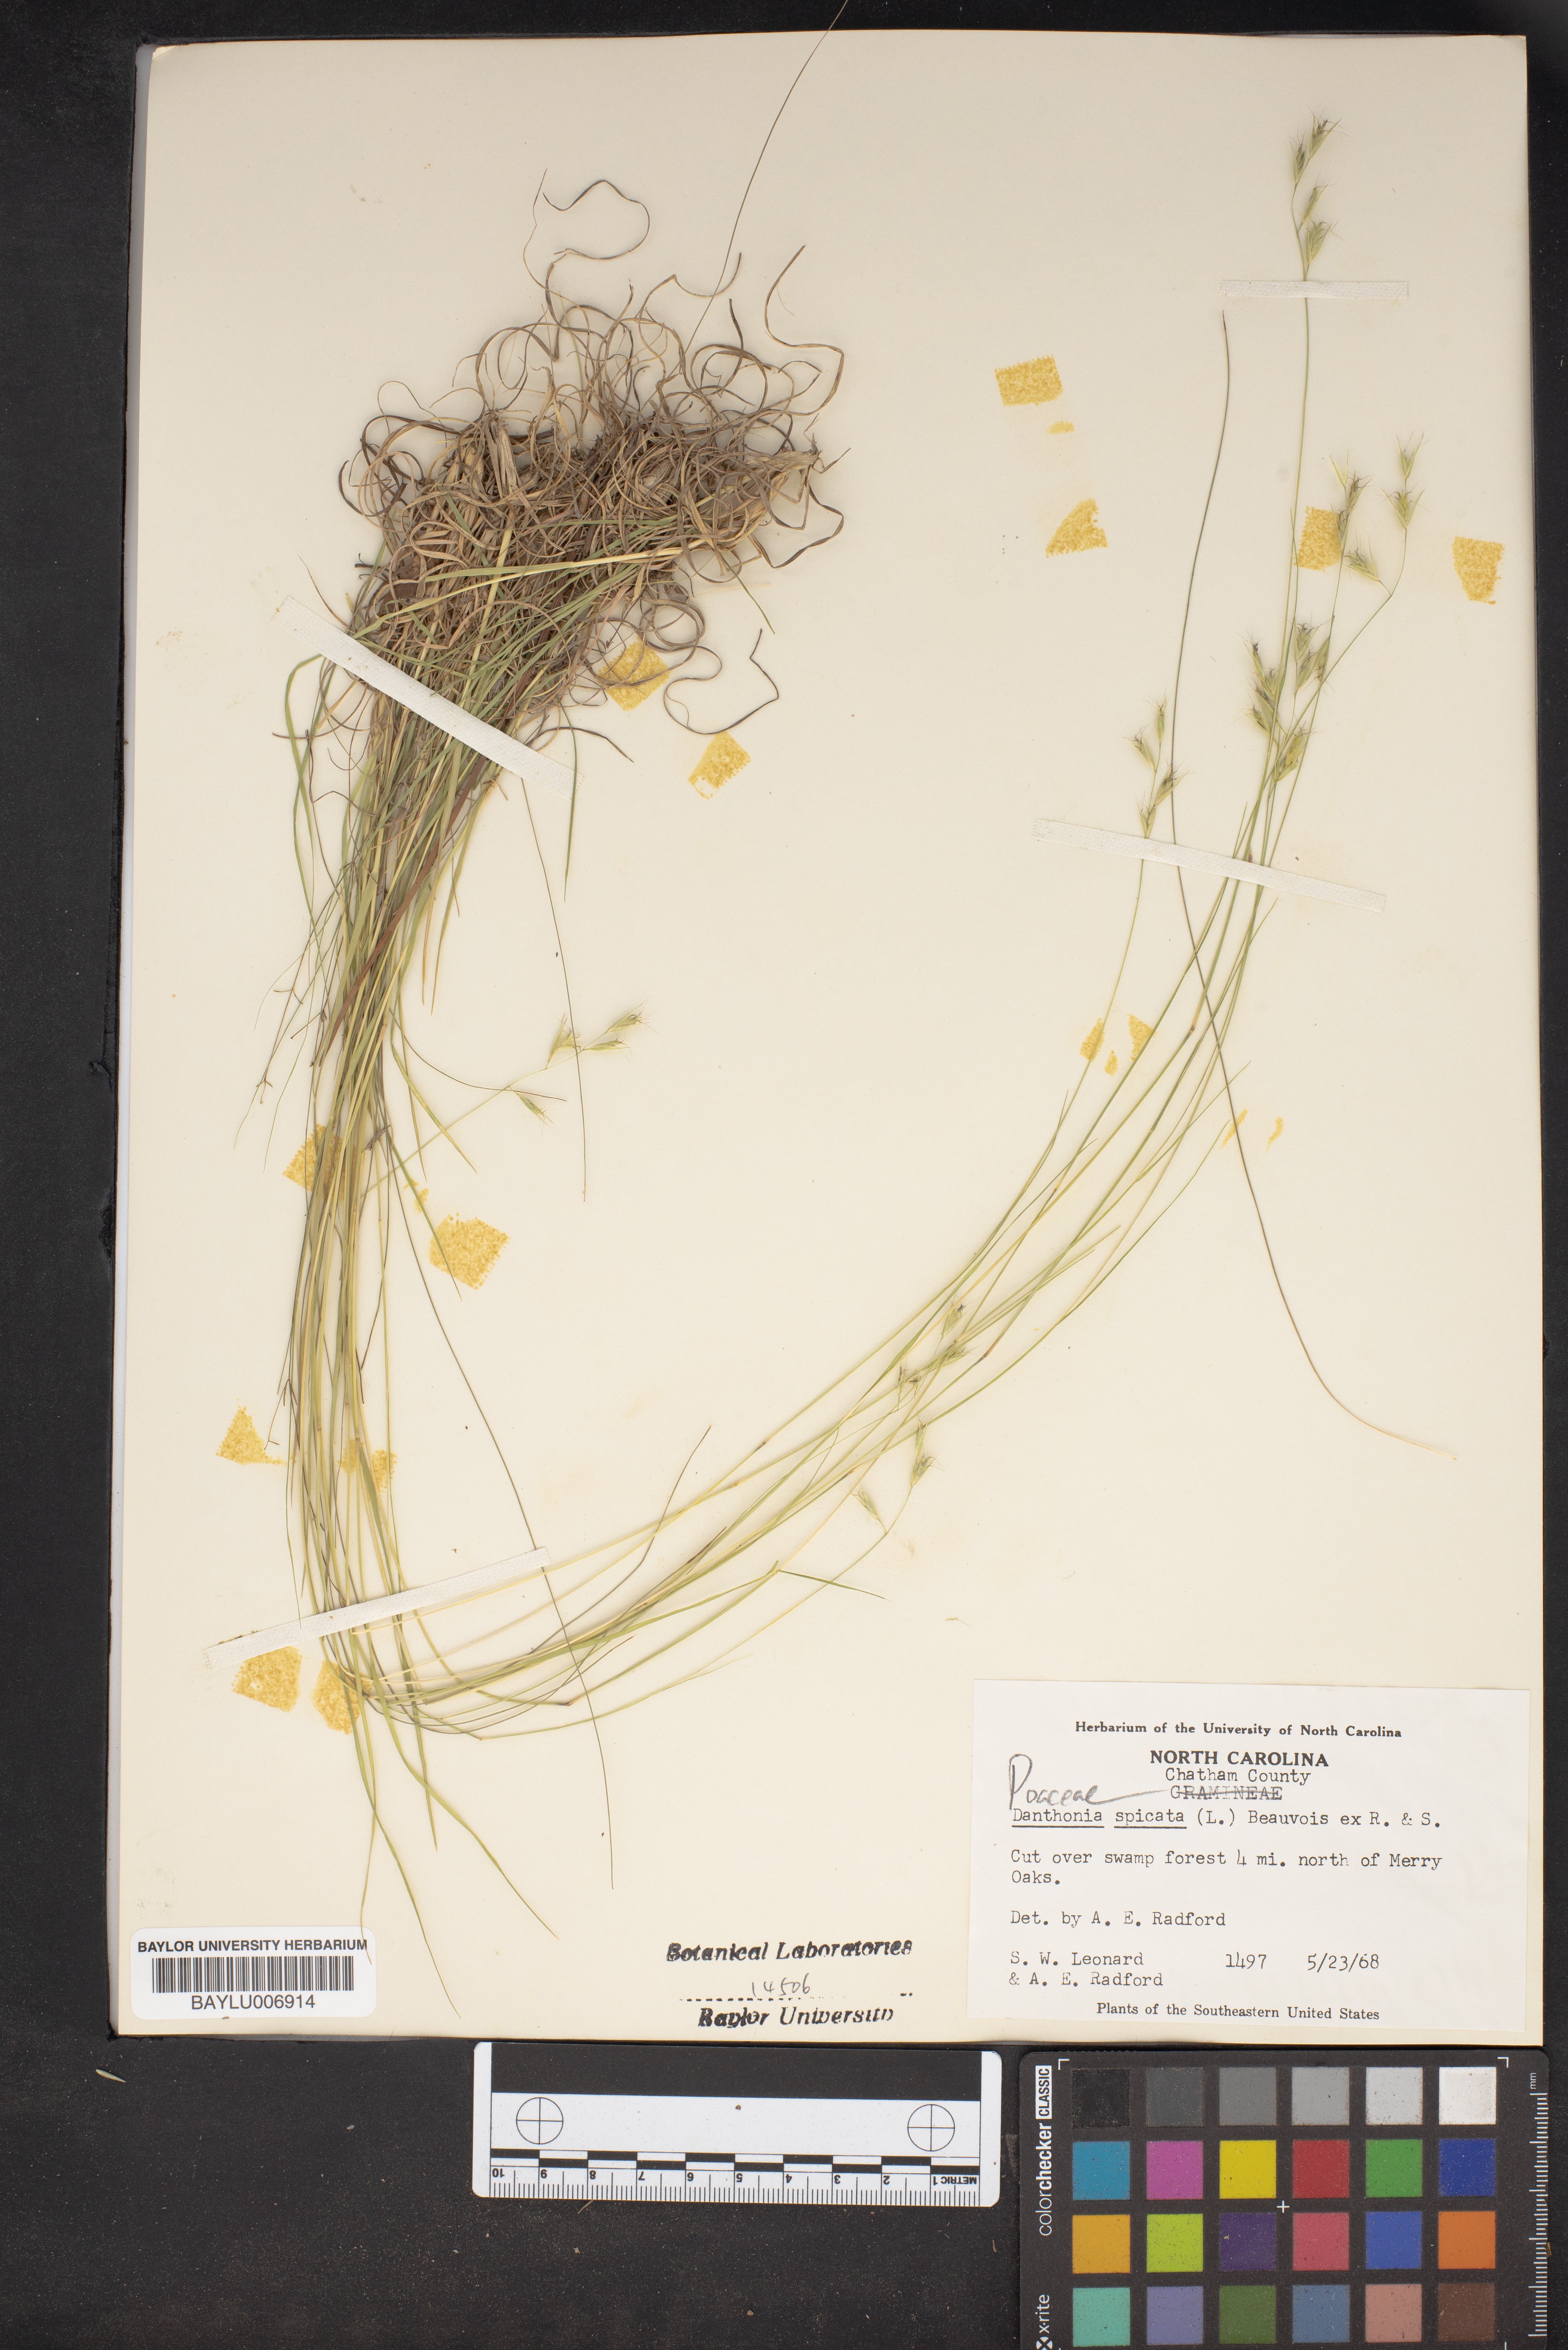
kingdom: Plantae
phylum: Tracheophyta
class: Liliopsida
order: Poales
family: Poaceae
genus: Danthonia
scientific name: Danthonia spicata
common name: Common wild oatgrass
